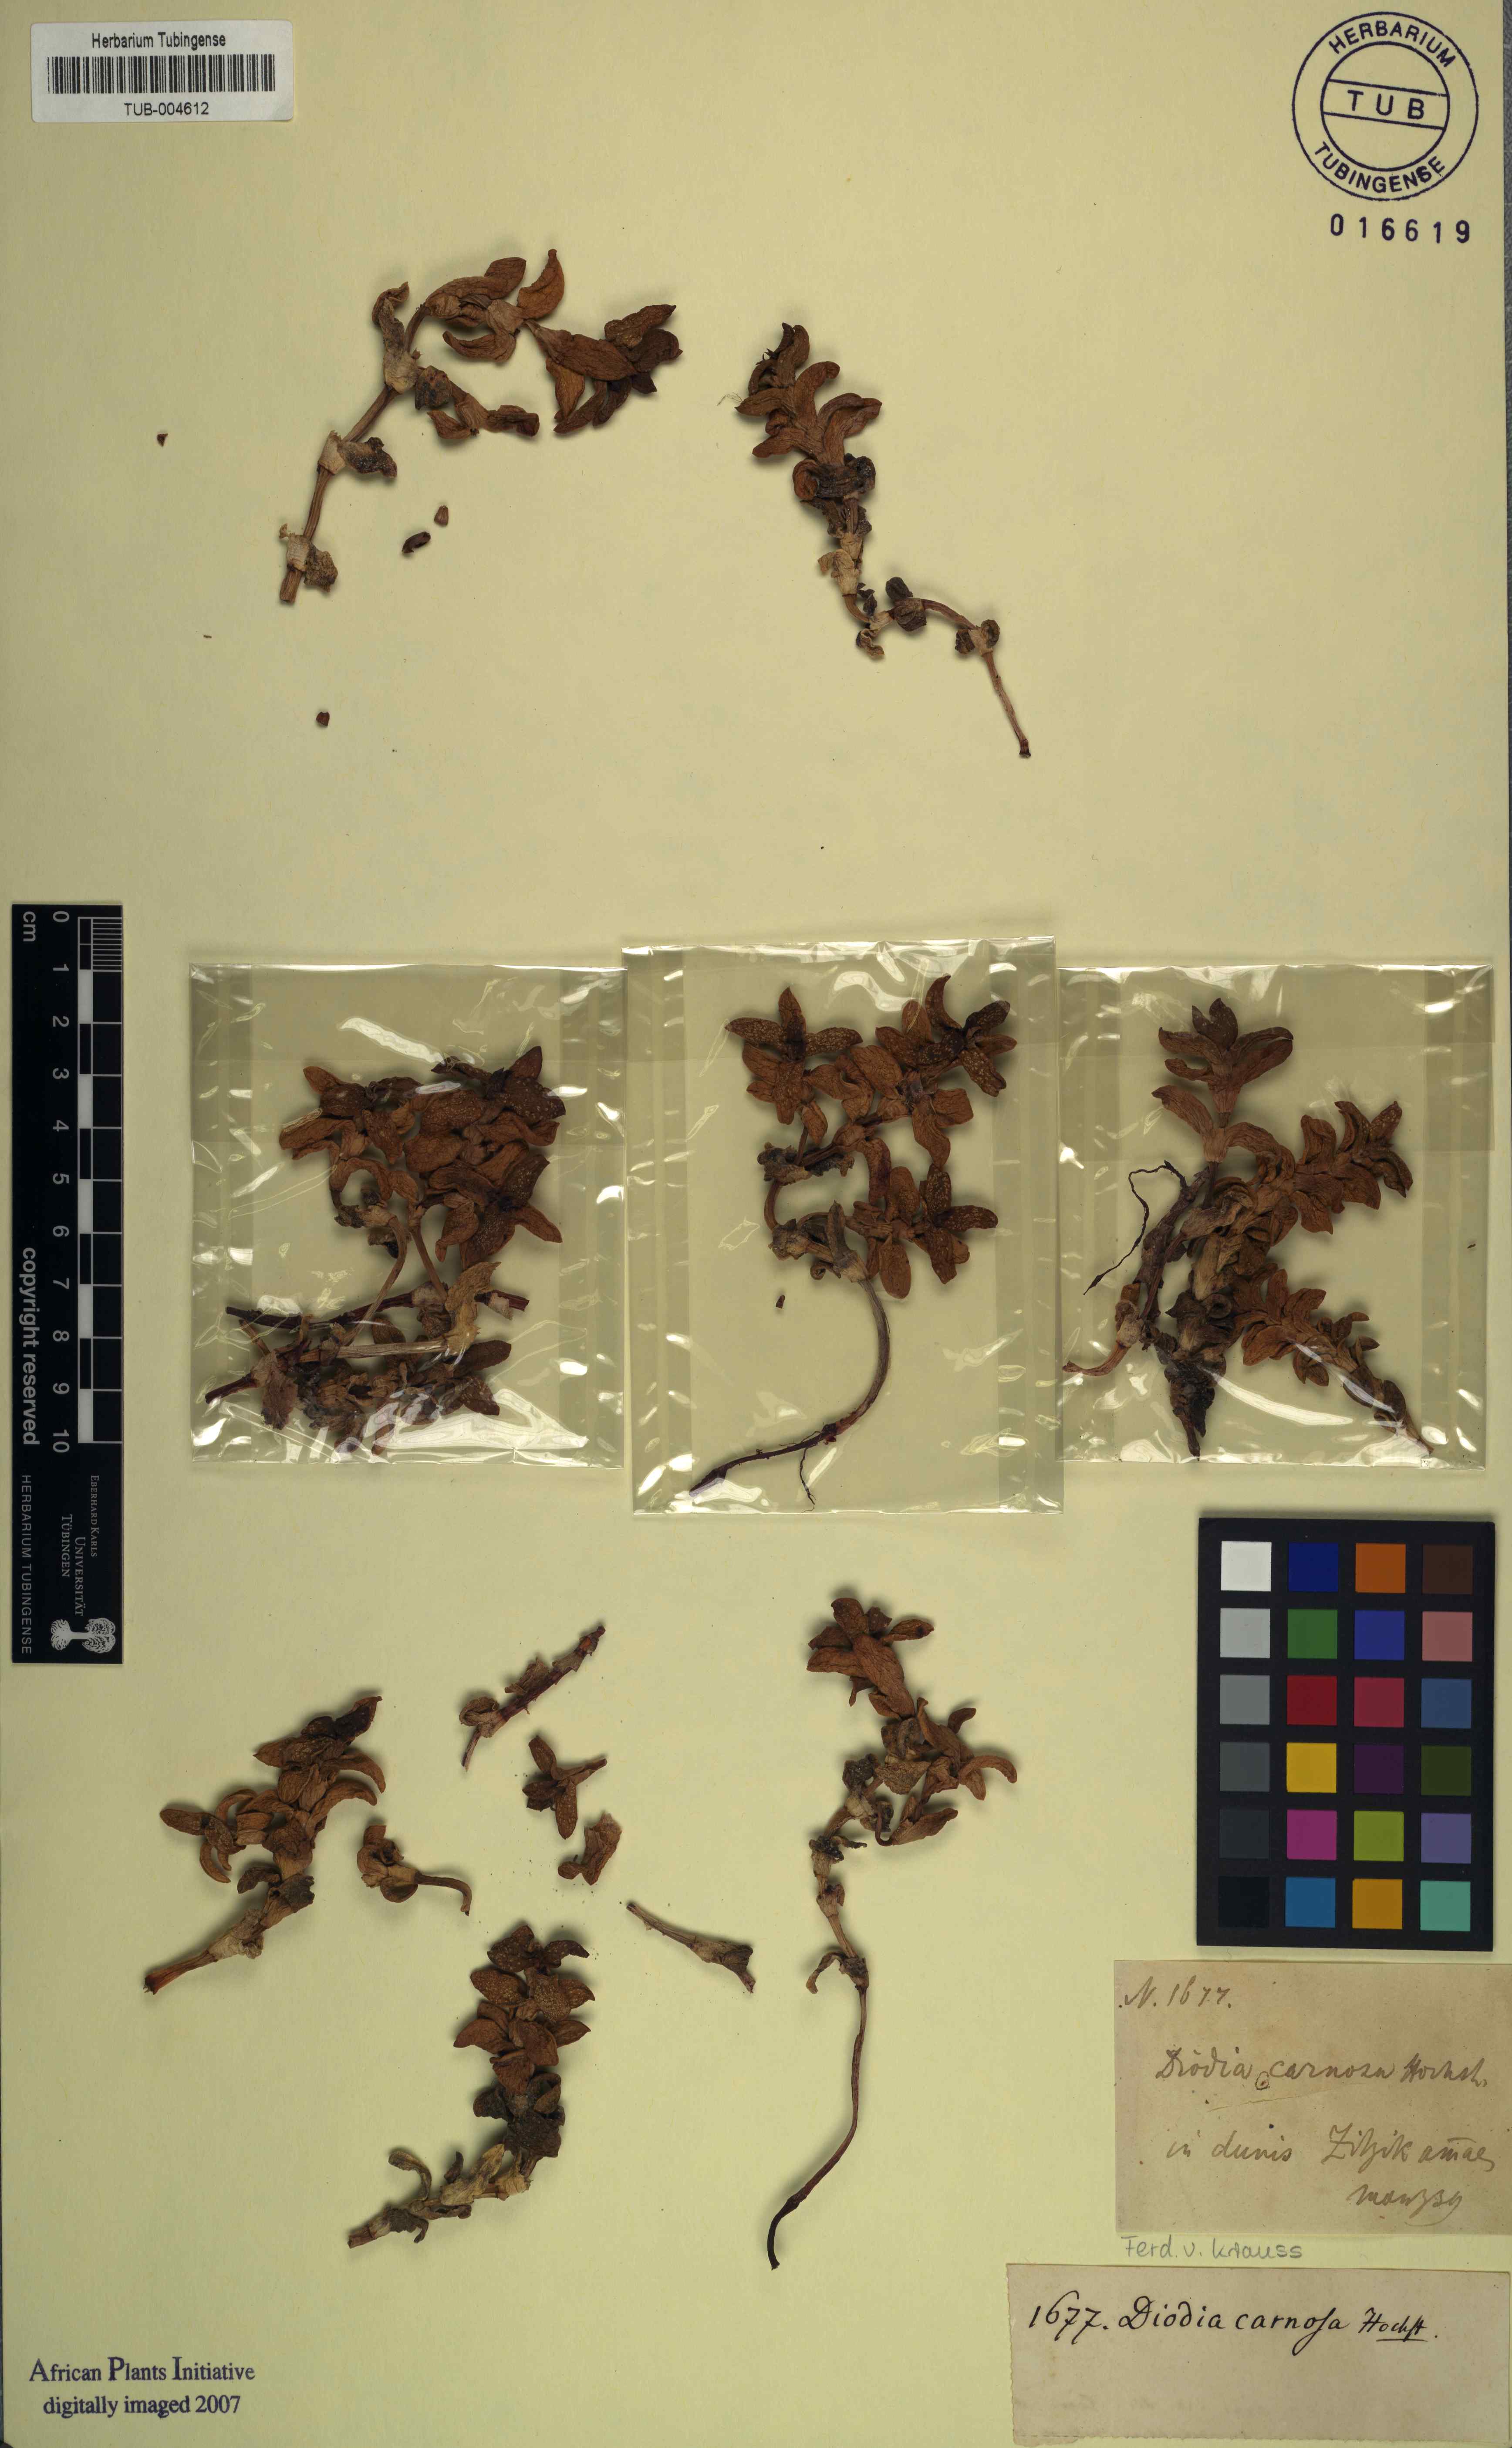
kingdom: Plantae
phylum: Tracheophyta
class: Magnoliopsida
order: Gentianales
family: Rubiaceae
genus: Phylohydrax
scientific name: Phylohydrax carnosa
